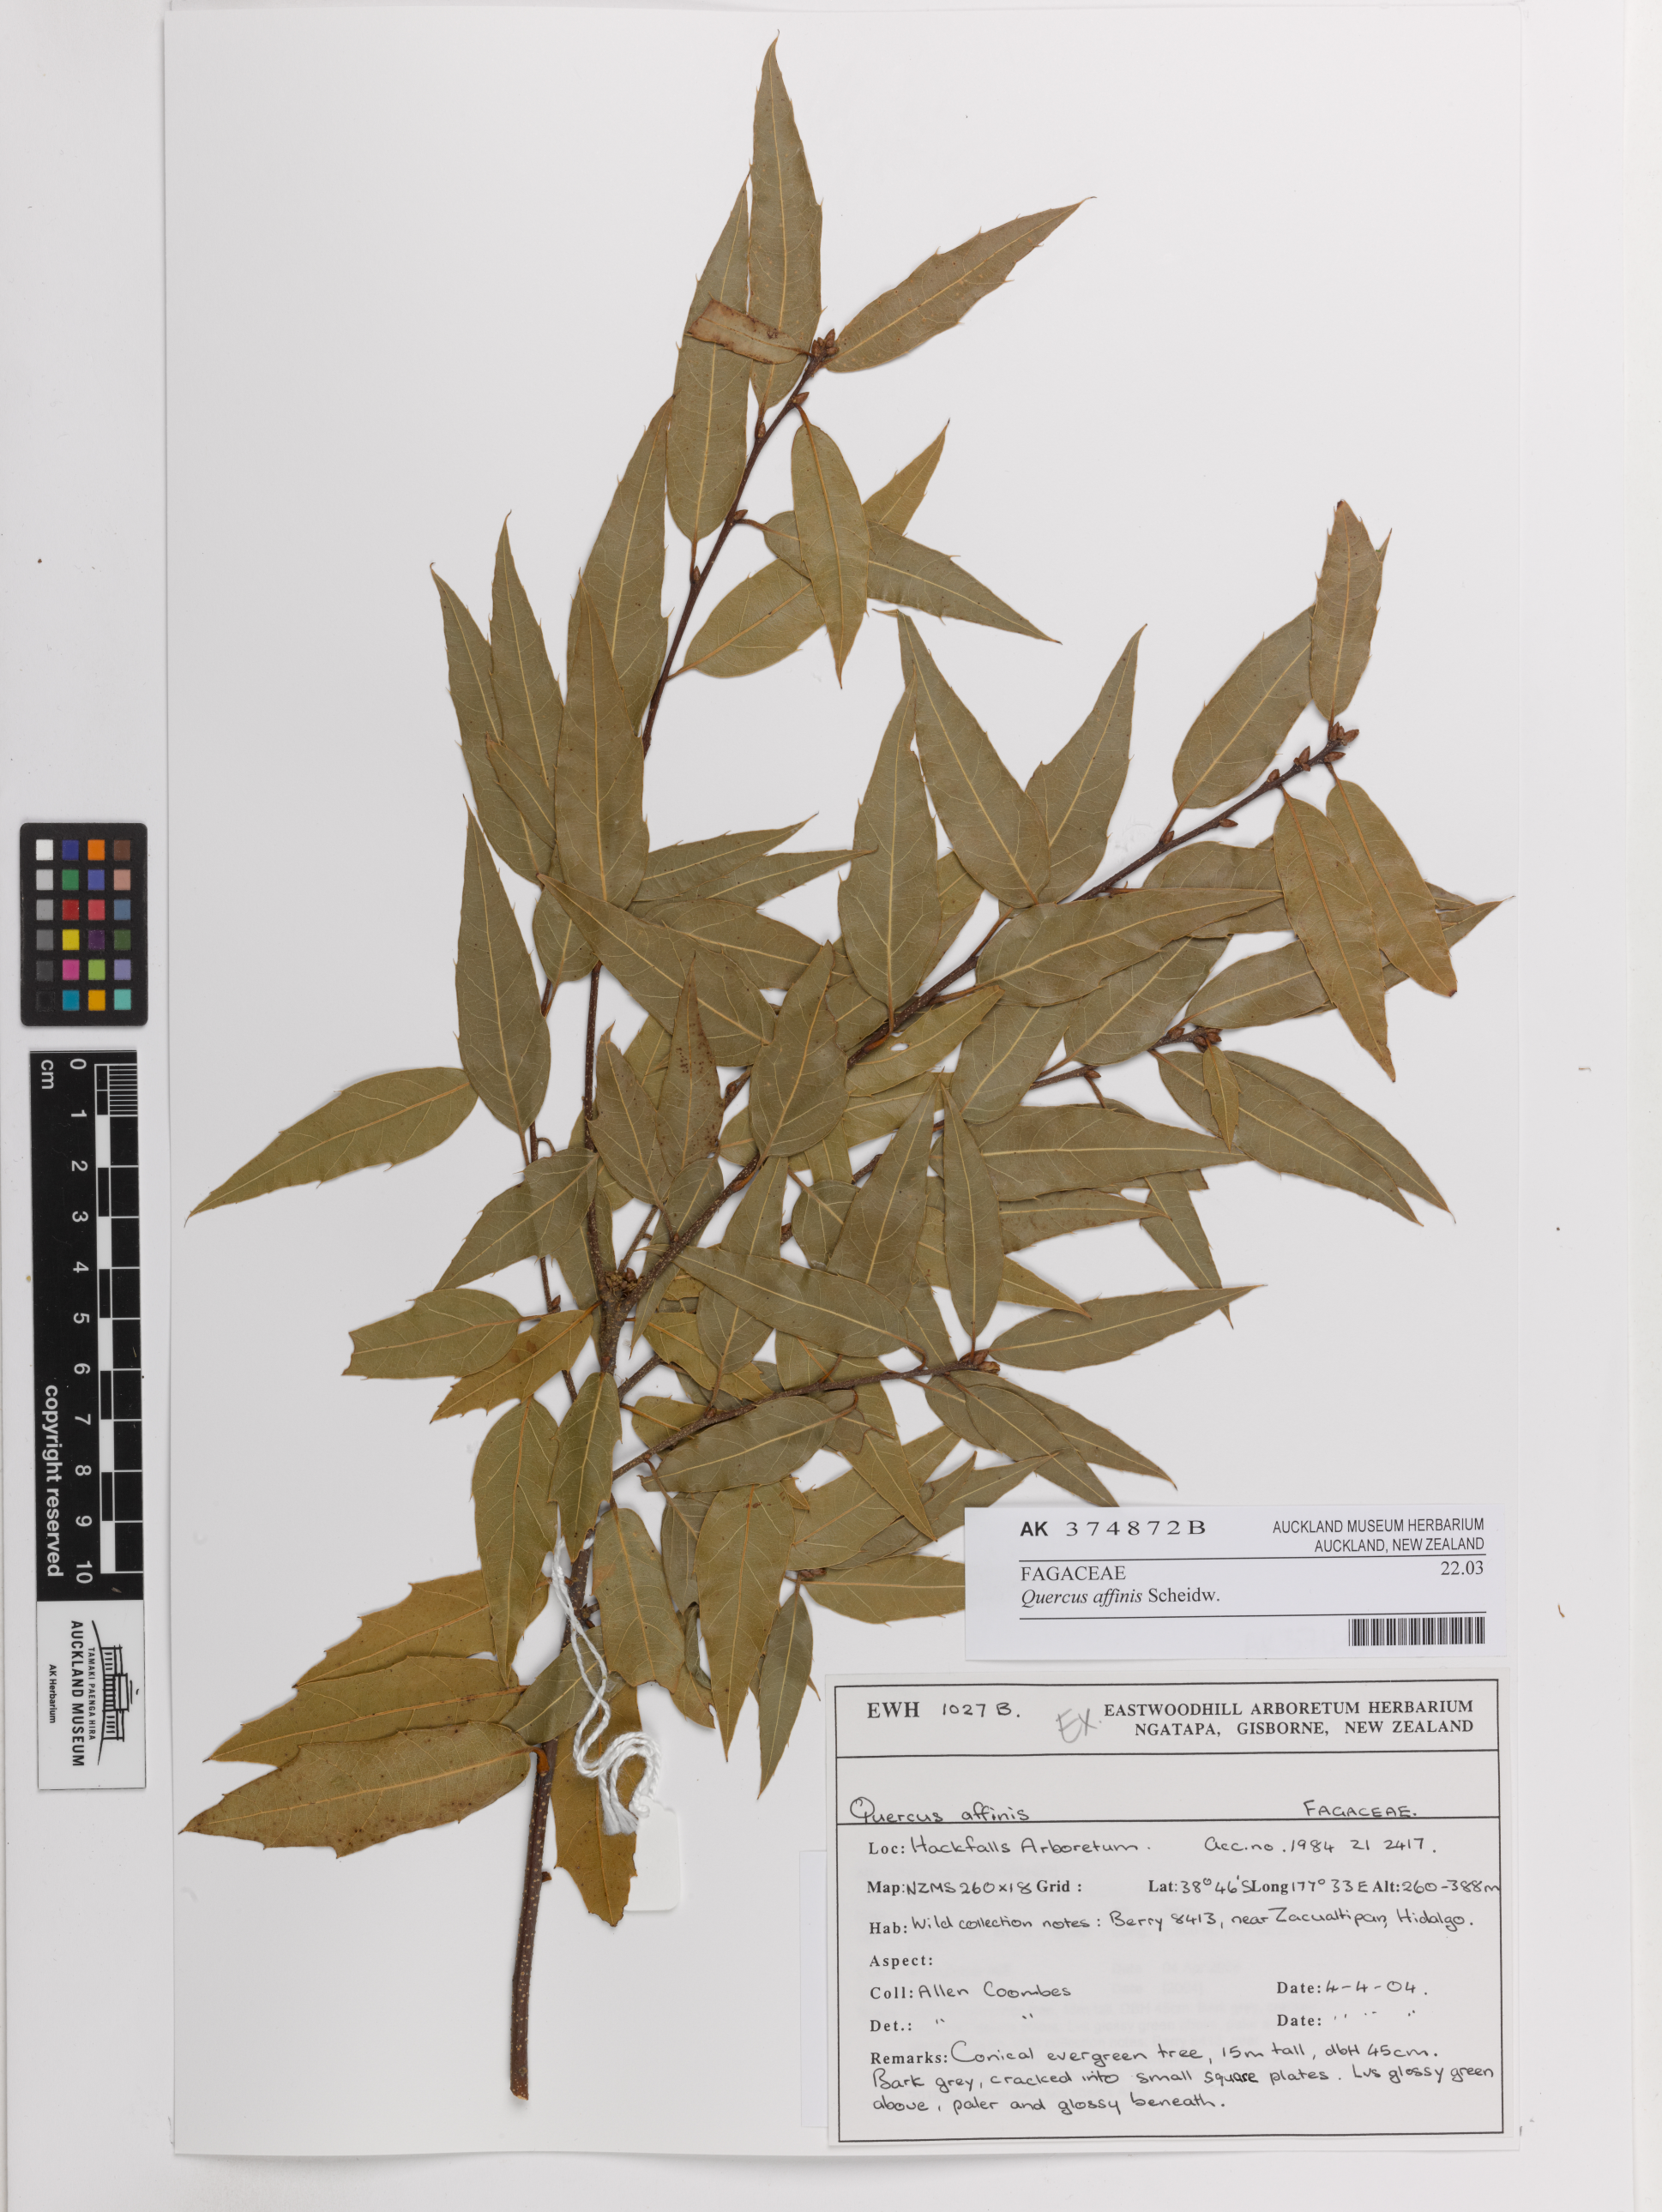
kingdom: Plantae
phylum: Tracheophyta
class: Magnoliopsida
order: Fagales
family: Fagaceae
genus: Quercus
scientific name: Quercus affinis
